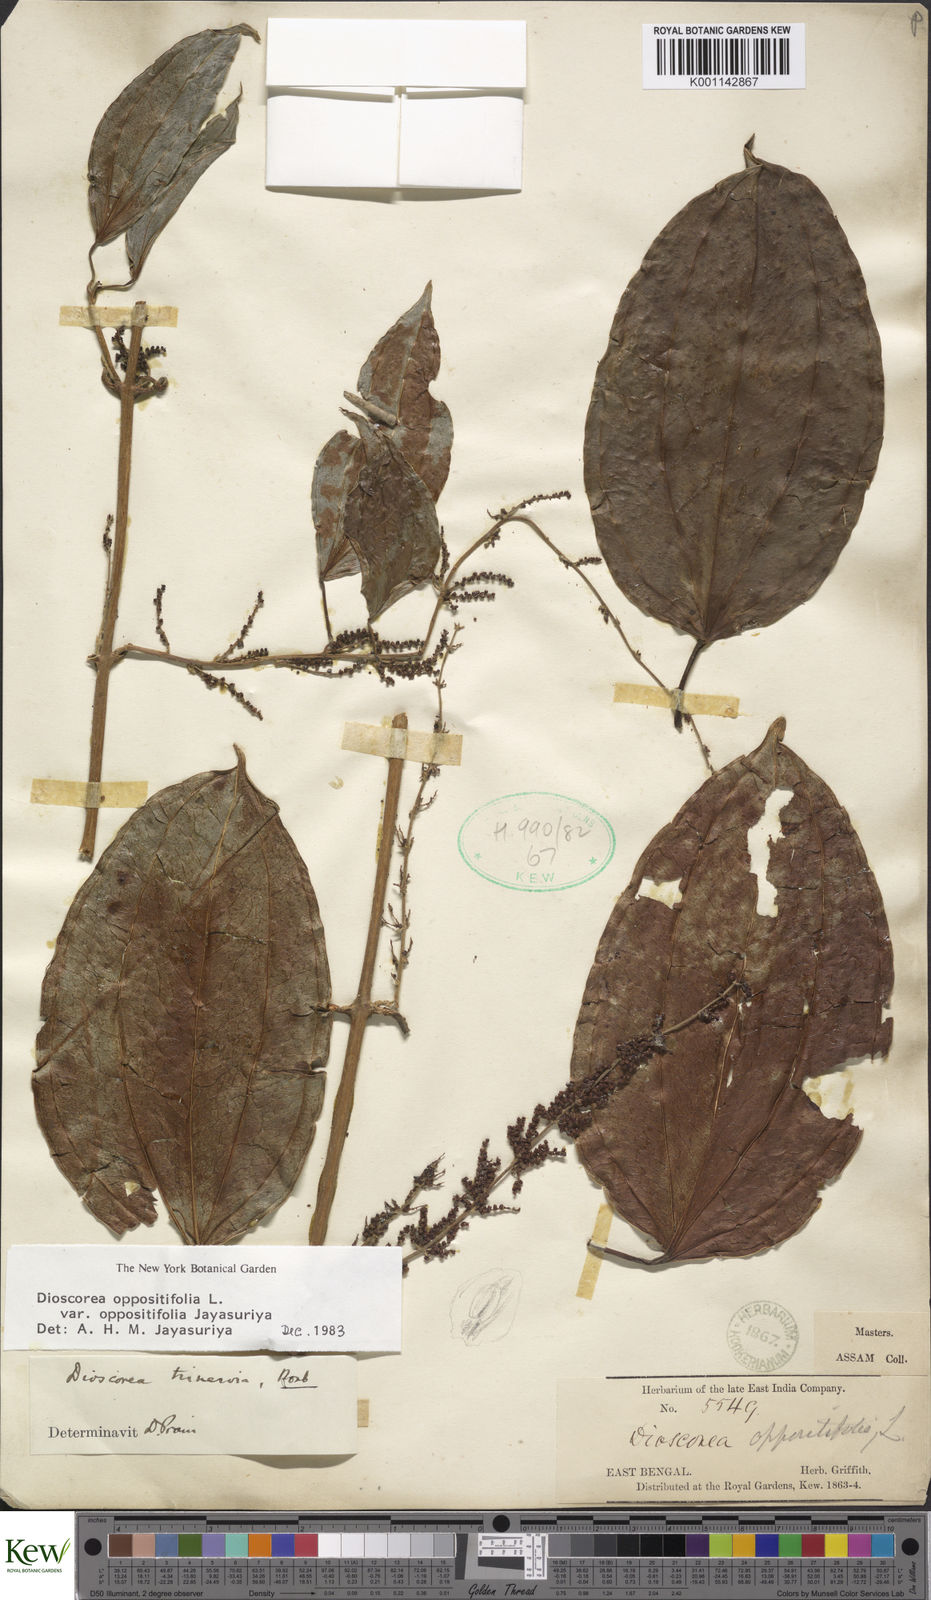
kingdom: Plantae
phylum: Tracheophyta
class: Liliopsida
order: Dioscoreales
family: Dioscoreaceae
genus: Dioscorea
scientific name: Dioscorea oppositifolia
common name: Chinese yam
